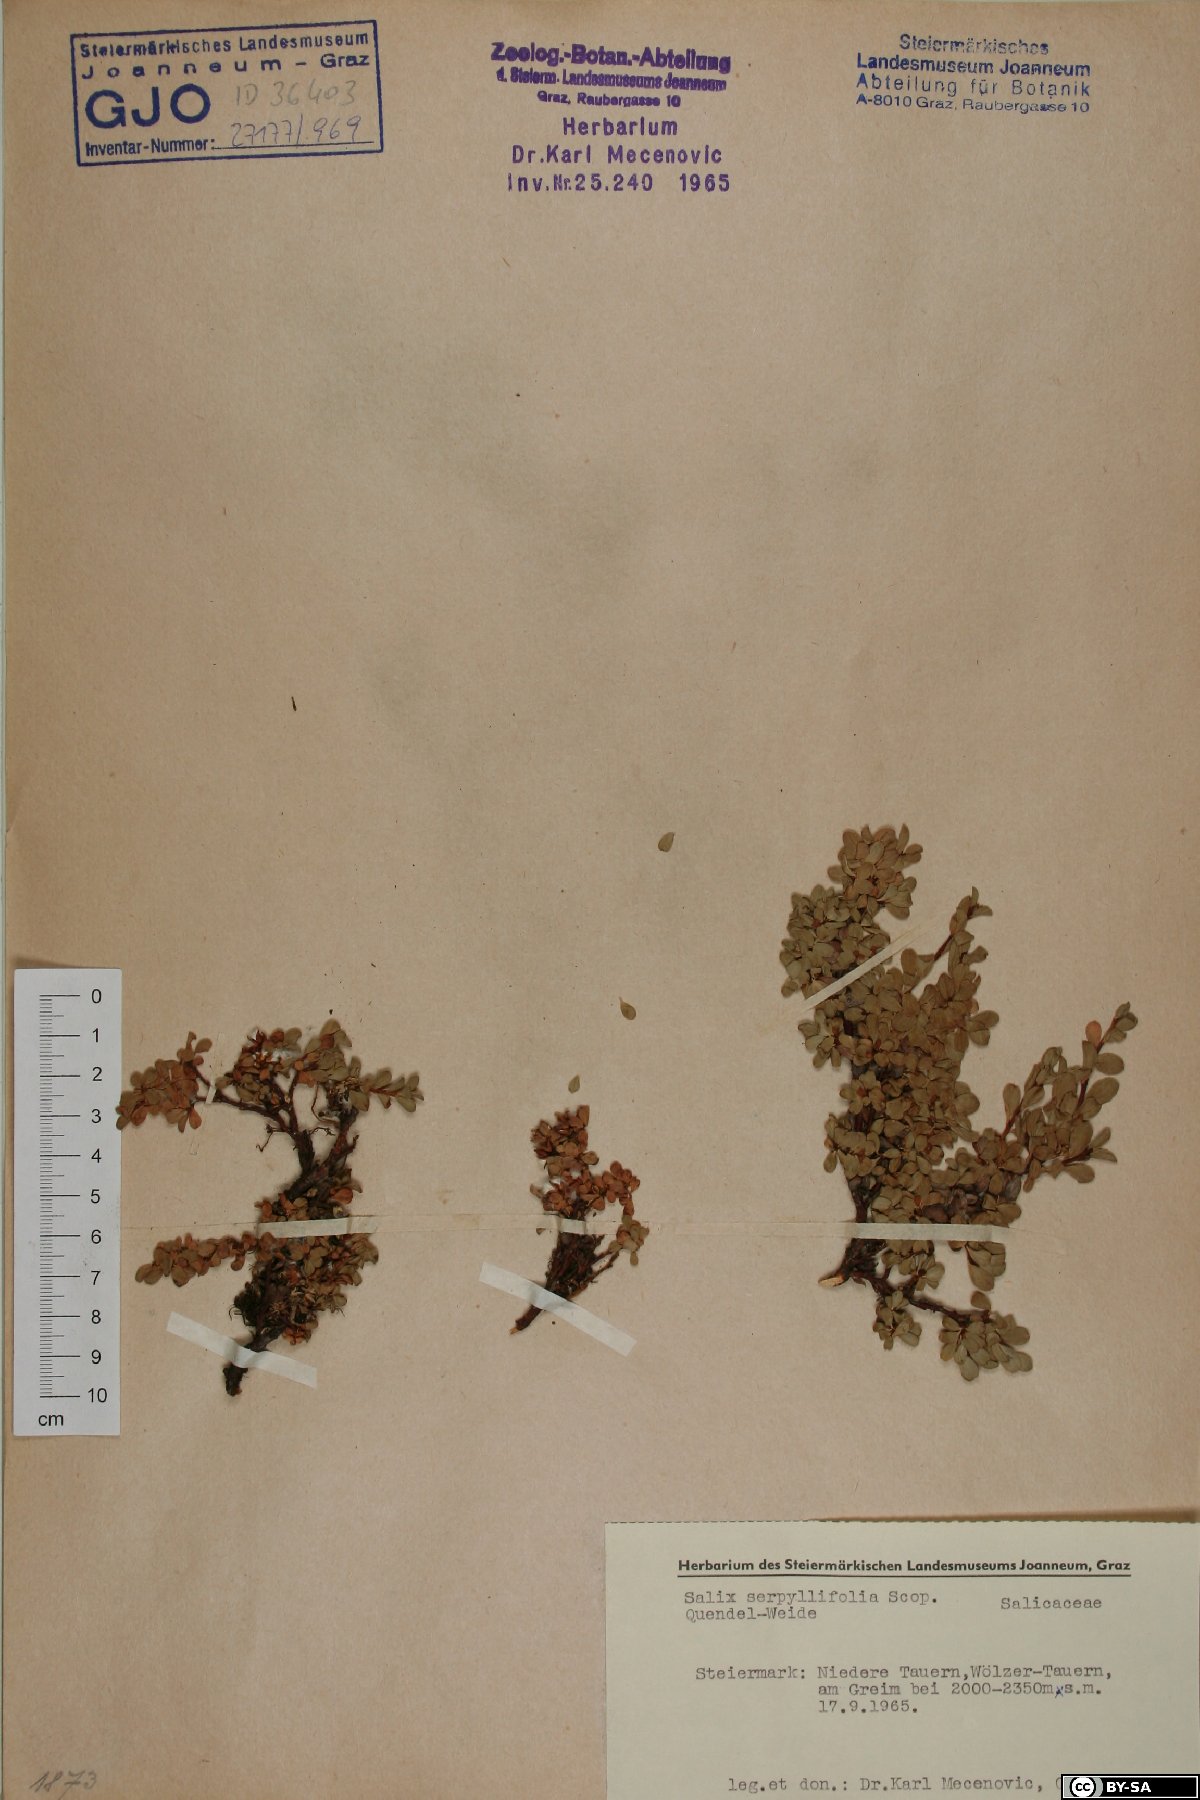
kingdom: Plantae
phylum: Tracheophyta
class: Magnoliopsida
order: Malpighiales
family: Salicaceae
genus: Salix
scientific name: Salix serpillifolia
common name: Thyme-leaf willow
